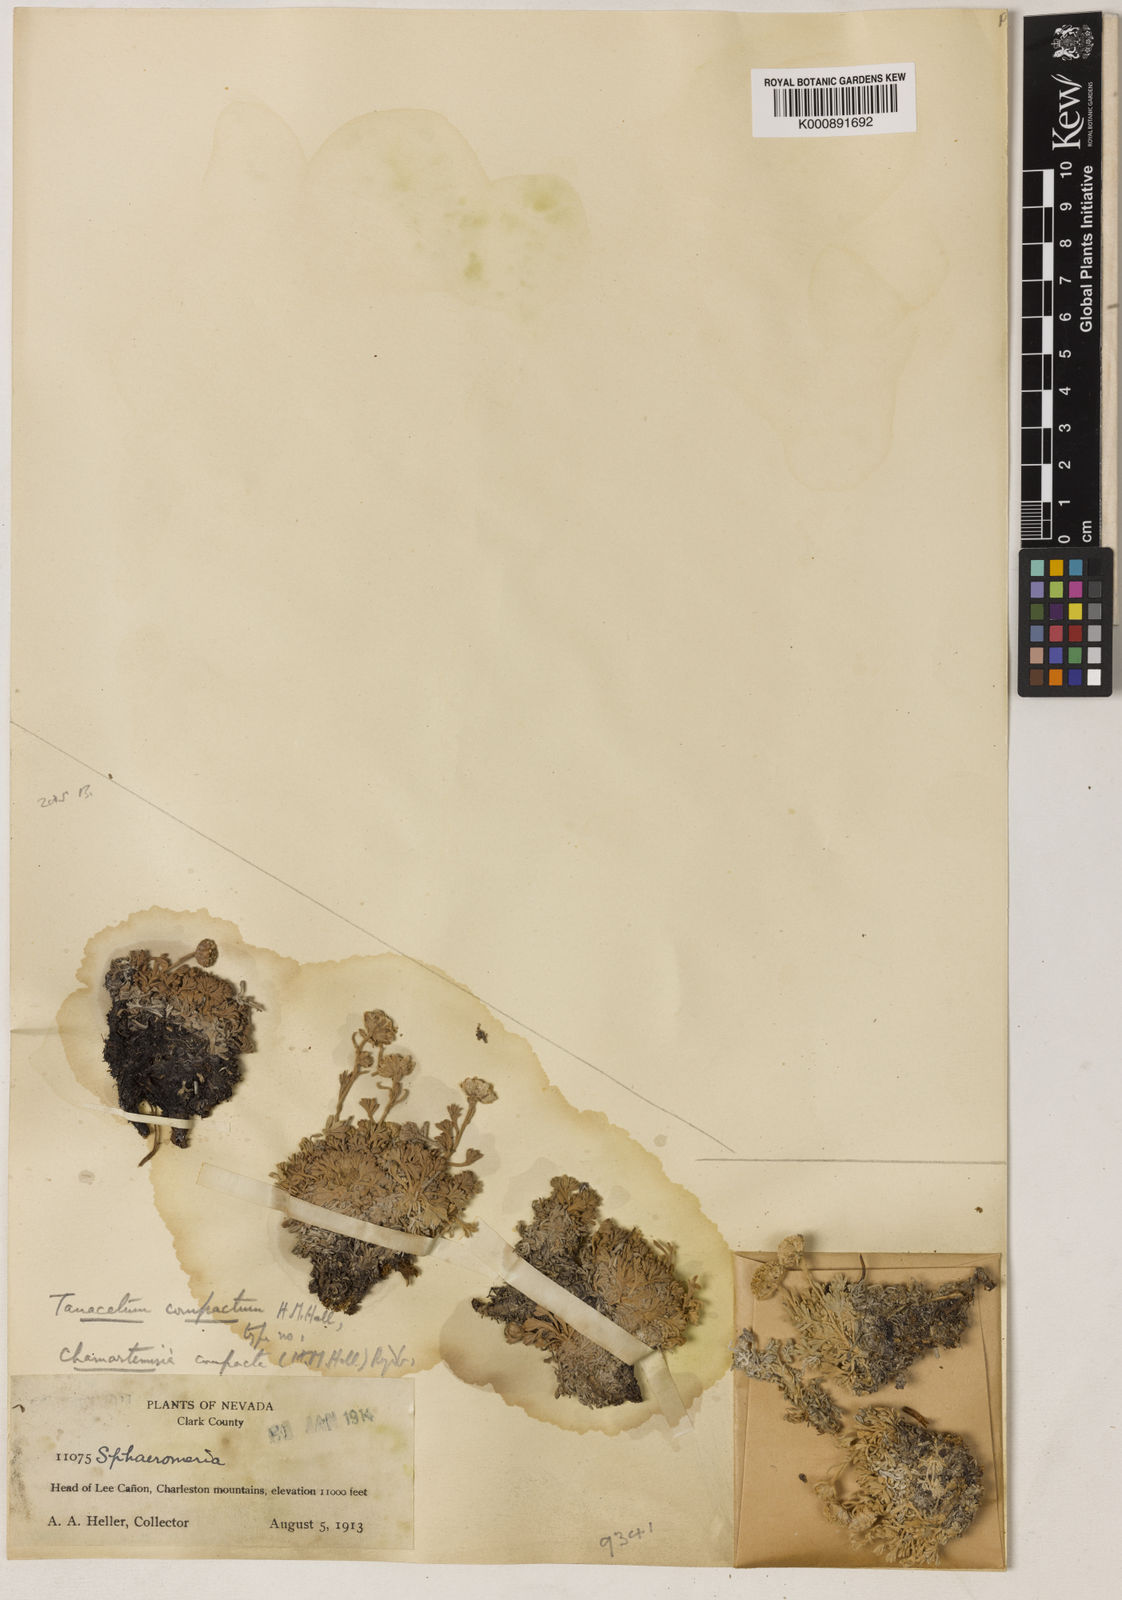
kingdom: Plantae
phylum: Tracheophyta
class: Magnoliopsida
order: Asterales
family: Asteraceae
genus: Artemisia
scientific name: Artemisia
